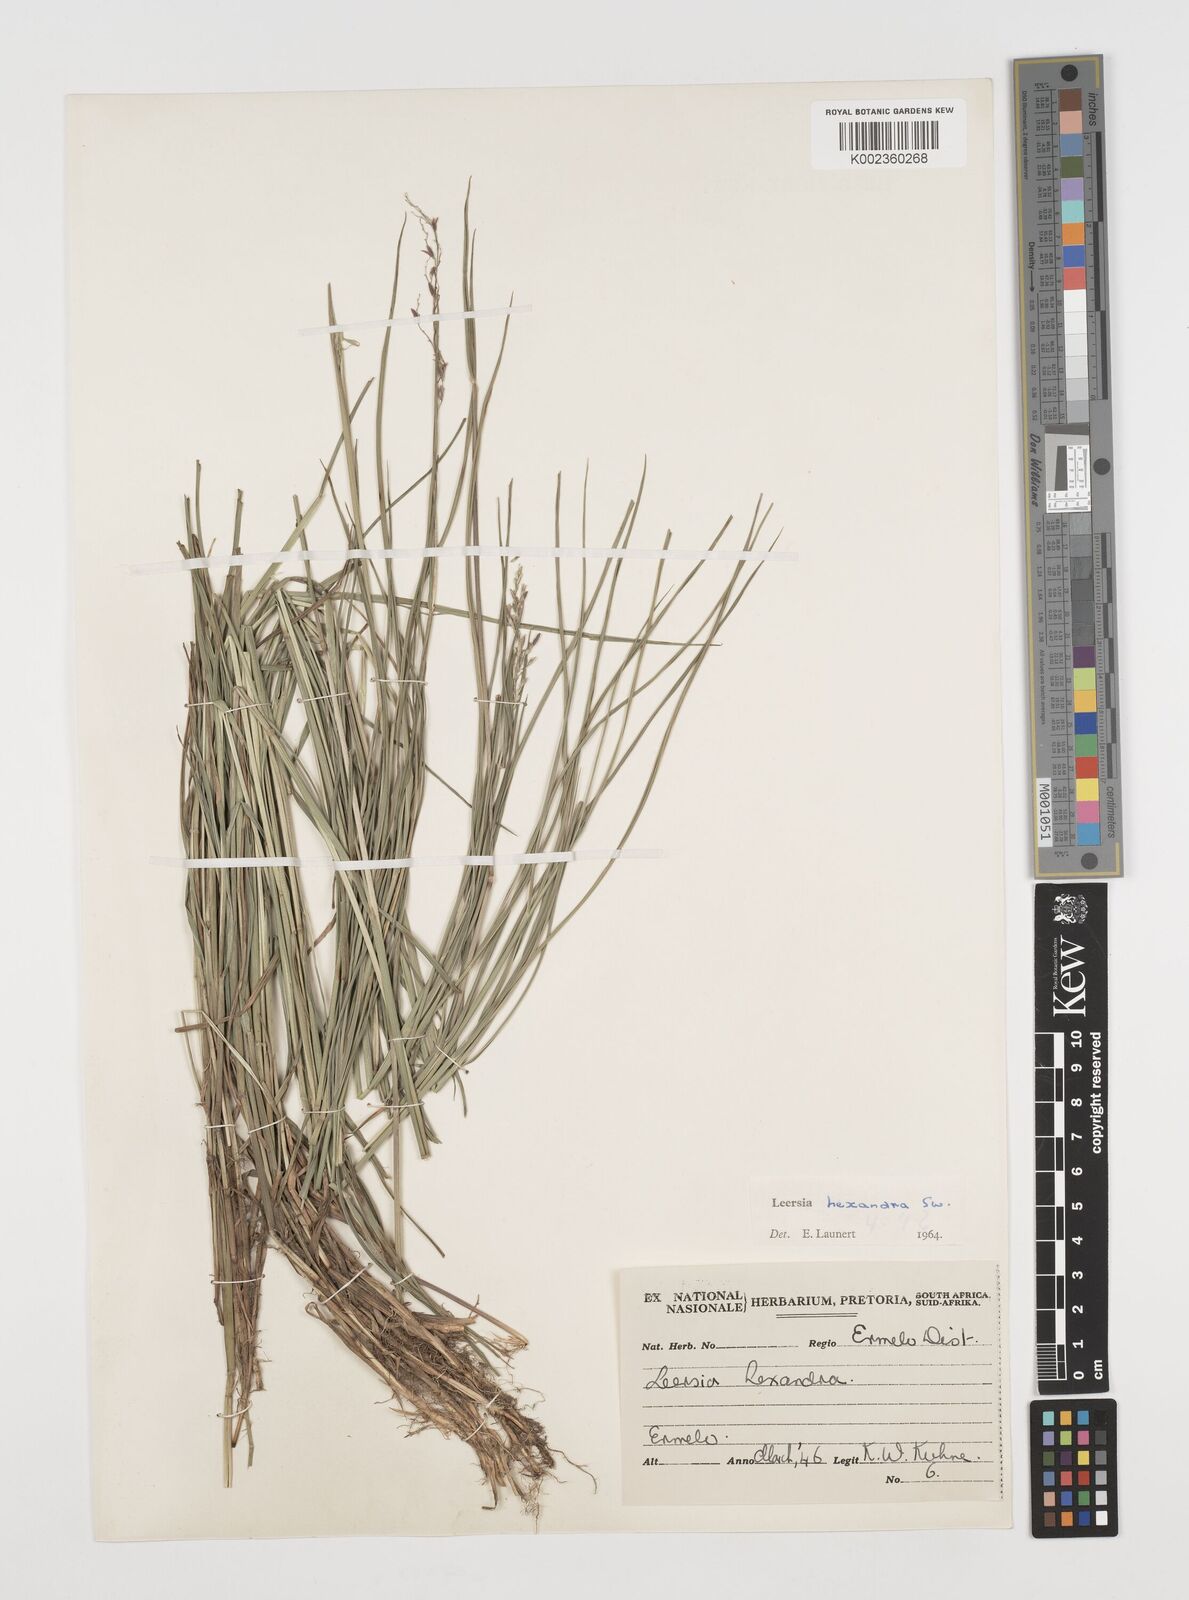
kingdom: Plantae
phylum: Tracheophyta
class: Liliopsida
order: Poales
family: Poaceae
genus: Leersia
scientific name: Leersia hexandra
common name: Southern cut grass
